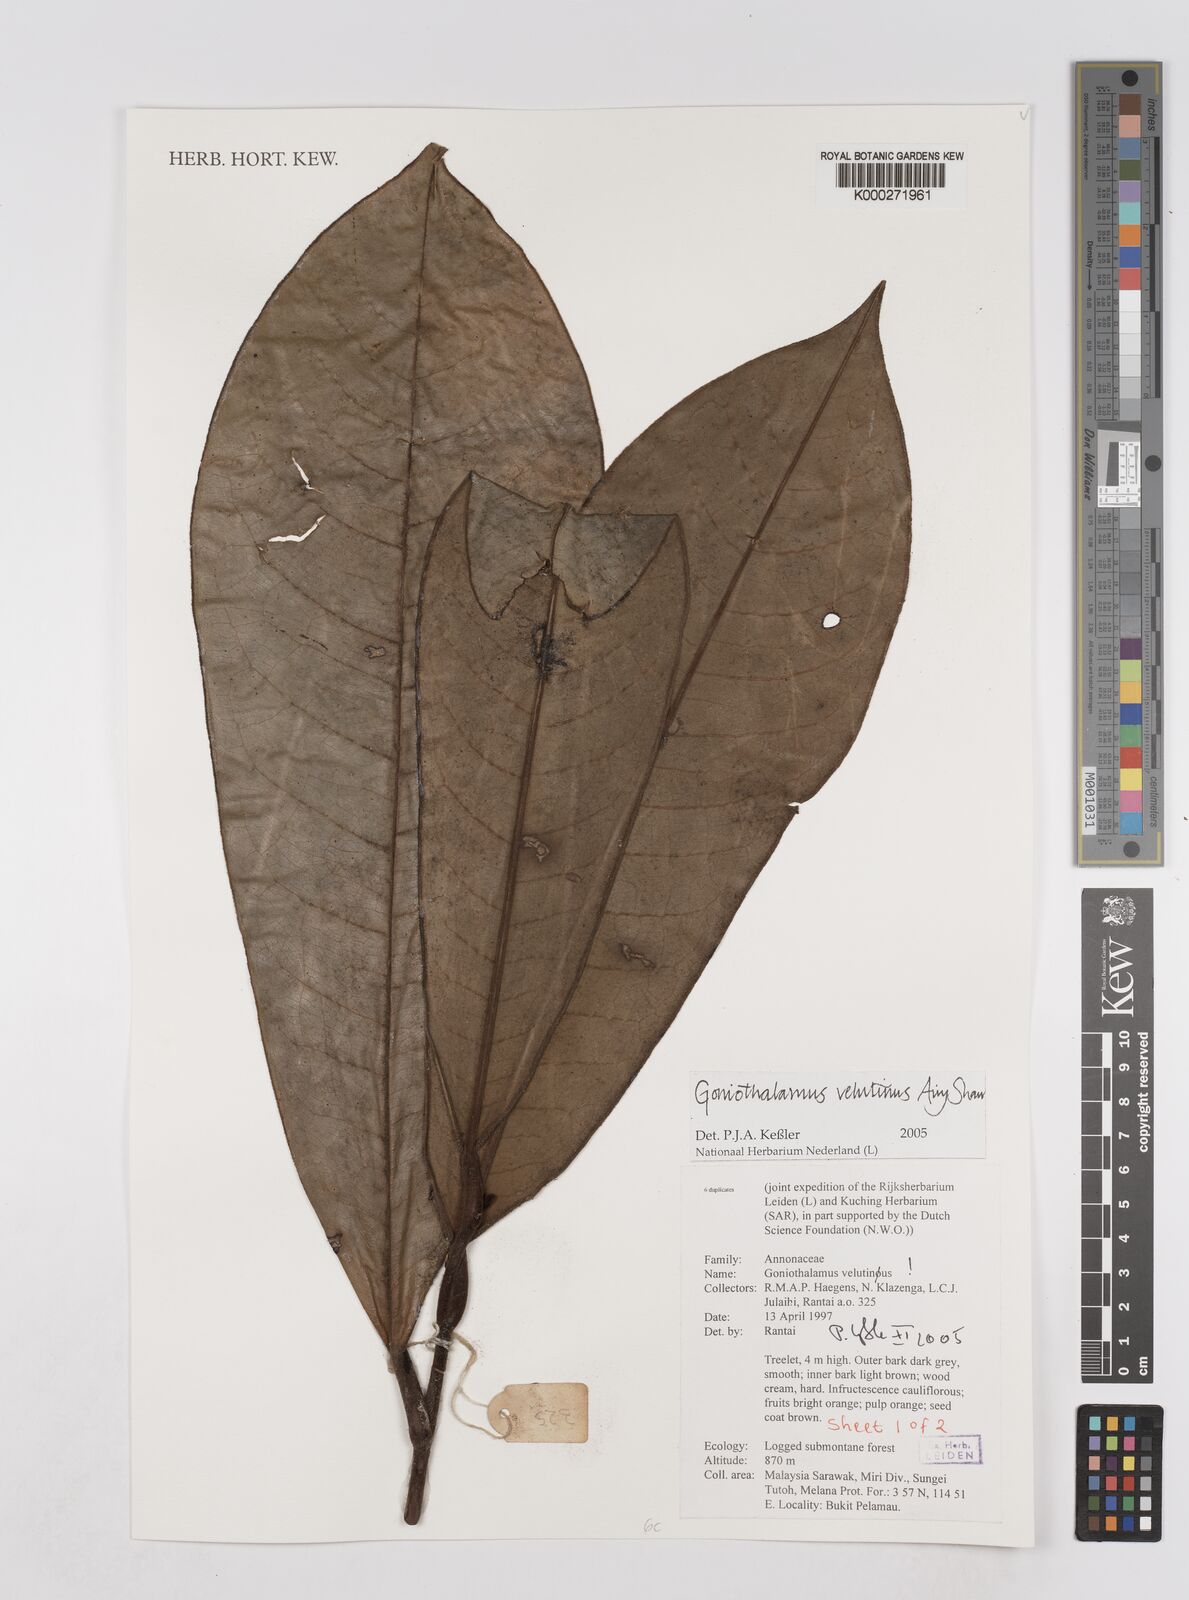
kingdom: Plantae
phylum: Tracheophyta
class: Magnoliopsida
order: Magnoliales
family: Annonaceae
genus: Goniothalamus
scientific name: Goniothalamus velutinus
